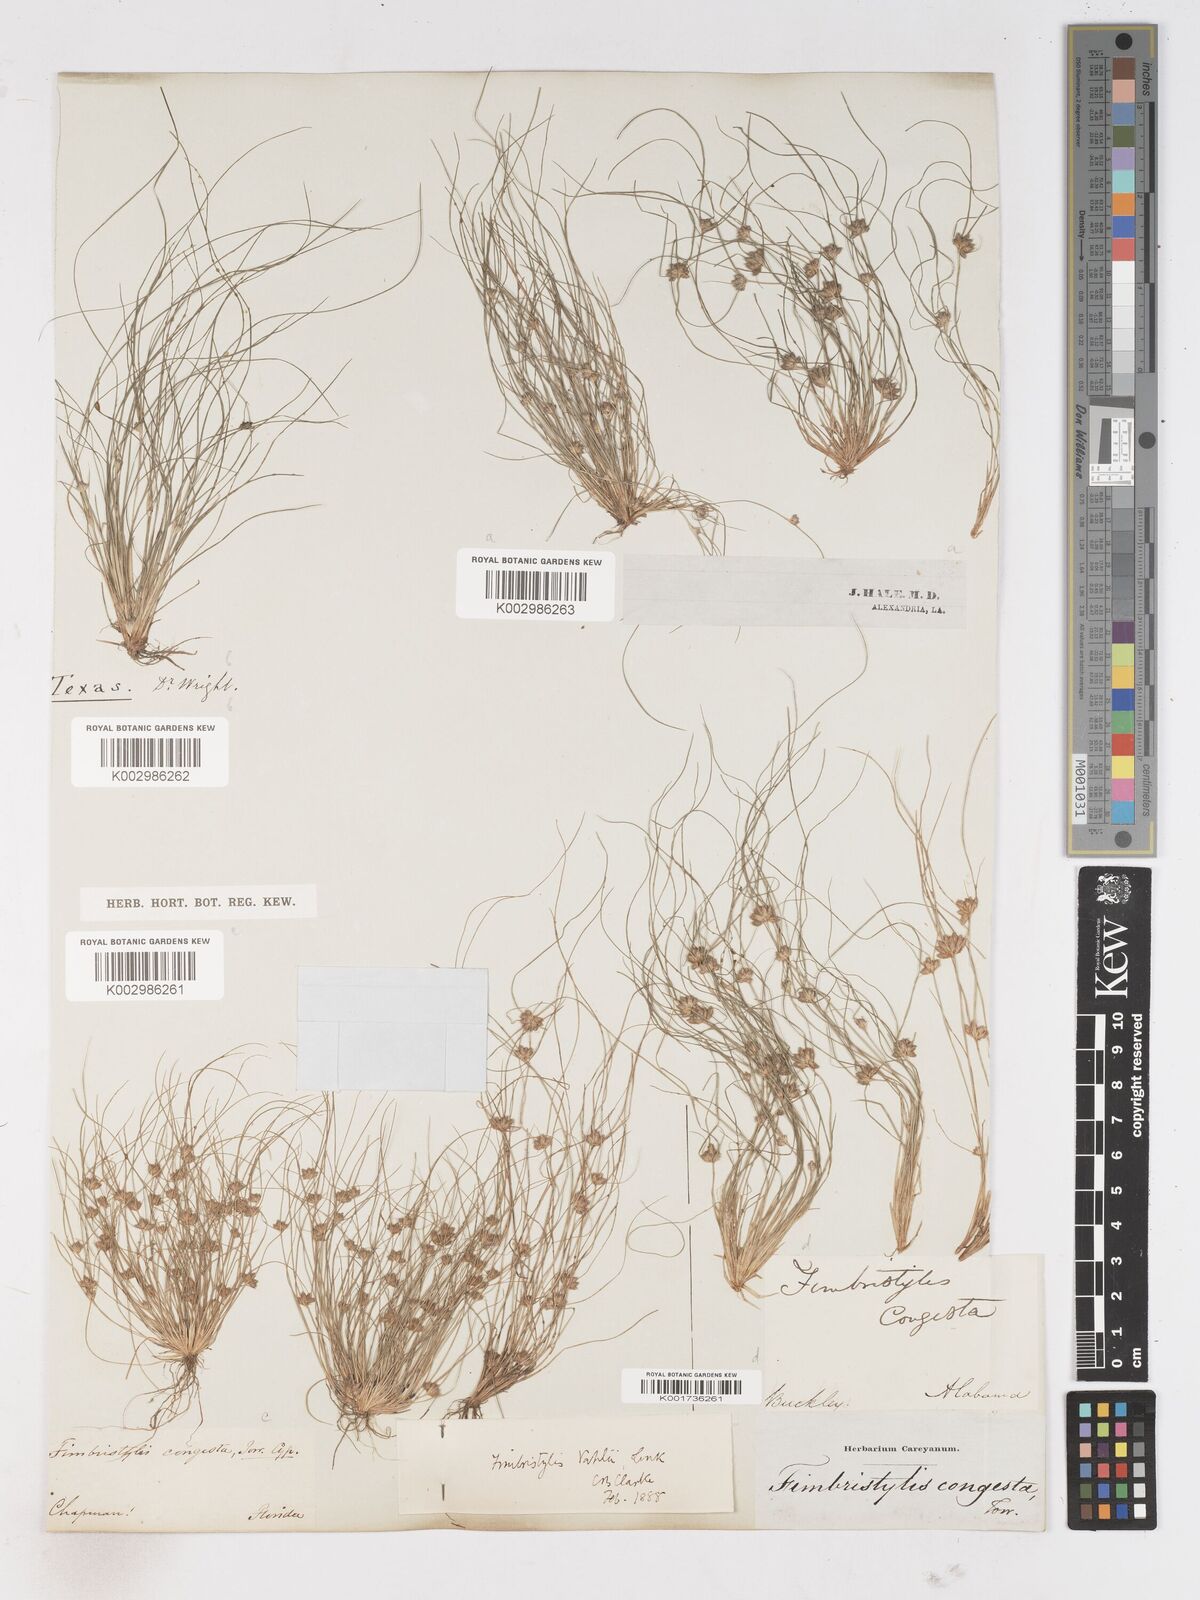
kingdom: Plantae
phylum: Tracheophyta
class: Liliopsida
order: Poales
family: Cyperaceae
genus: Fimbristylis
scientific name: Fimbristylis vahlii
